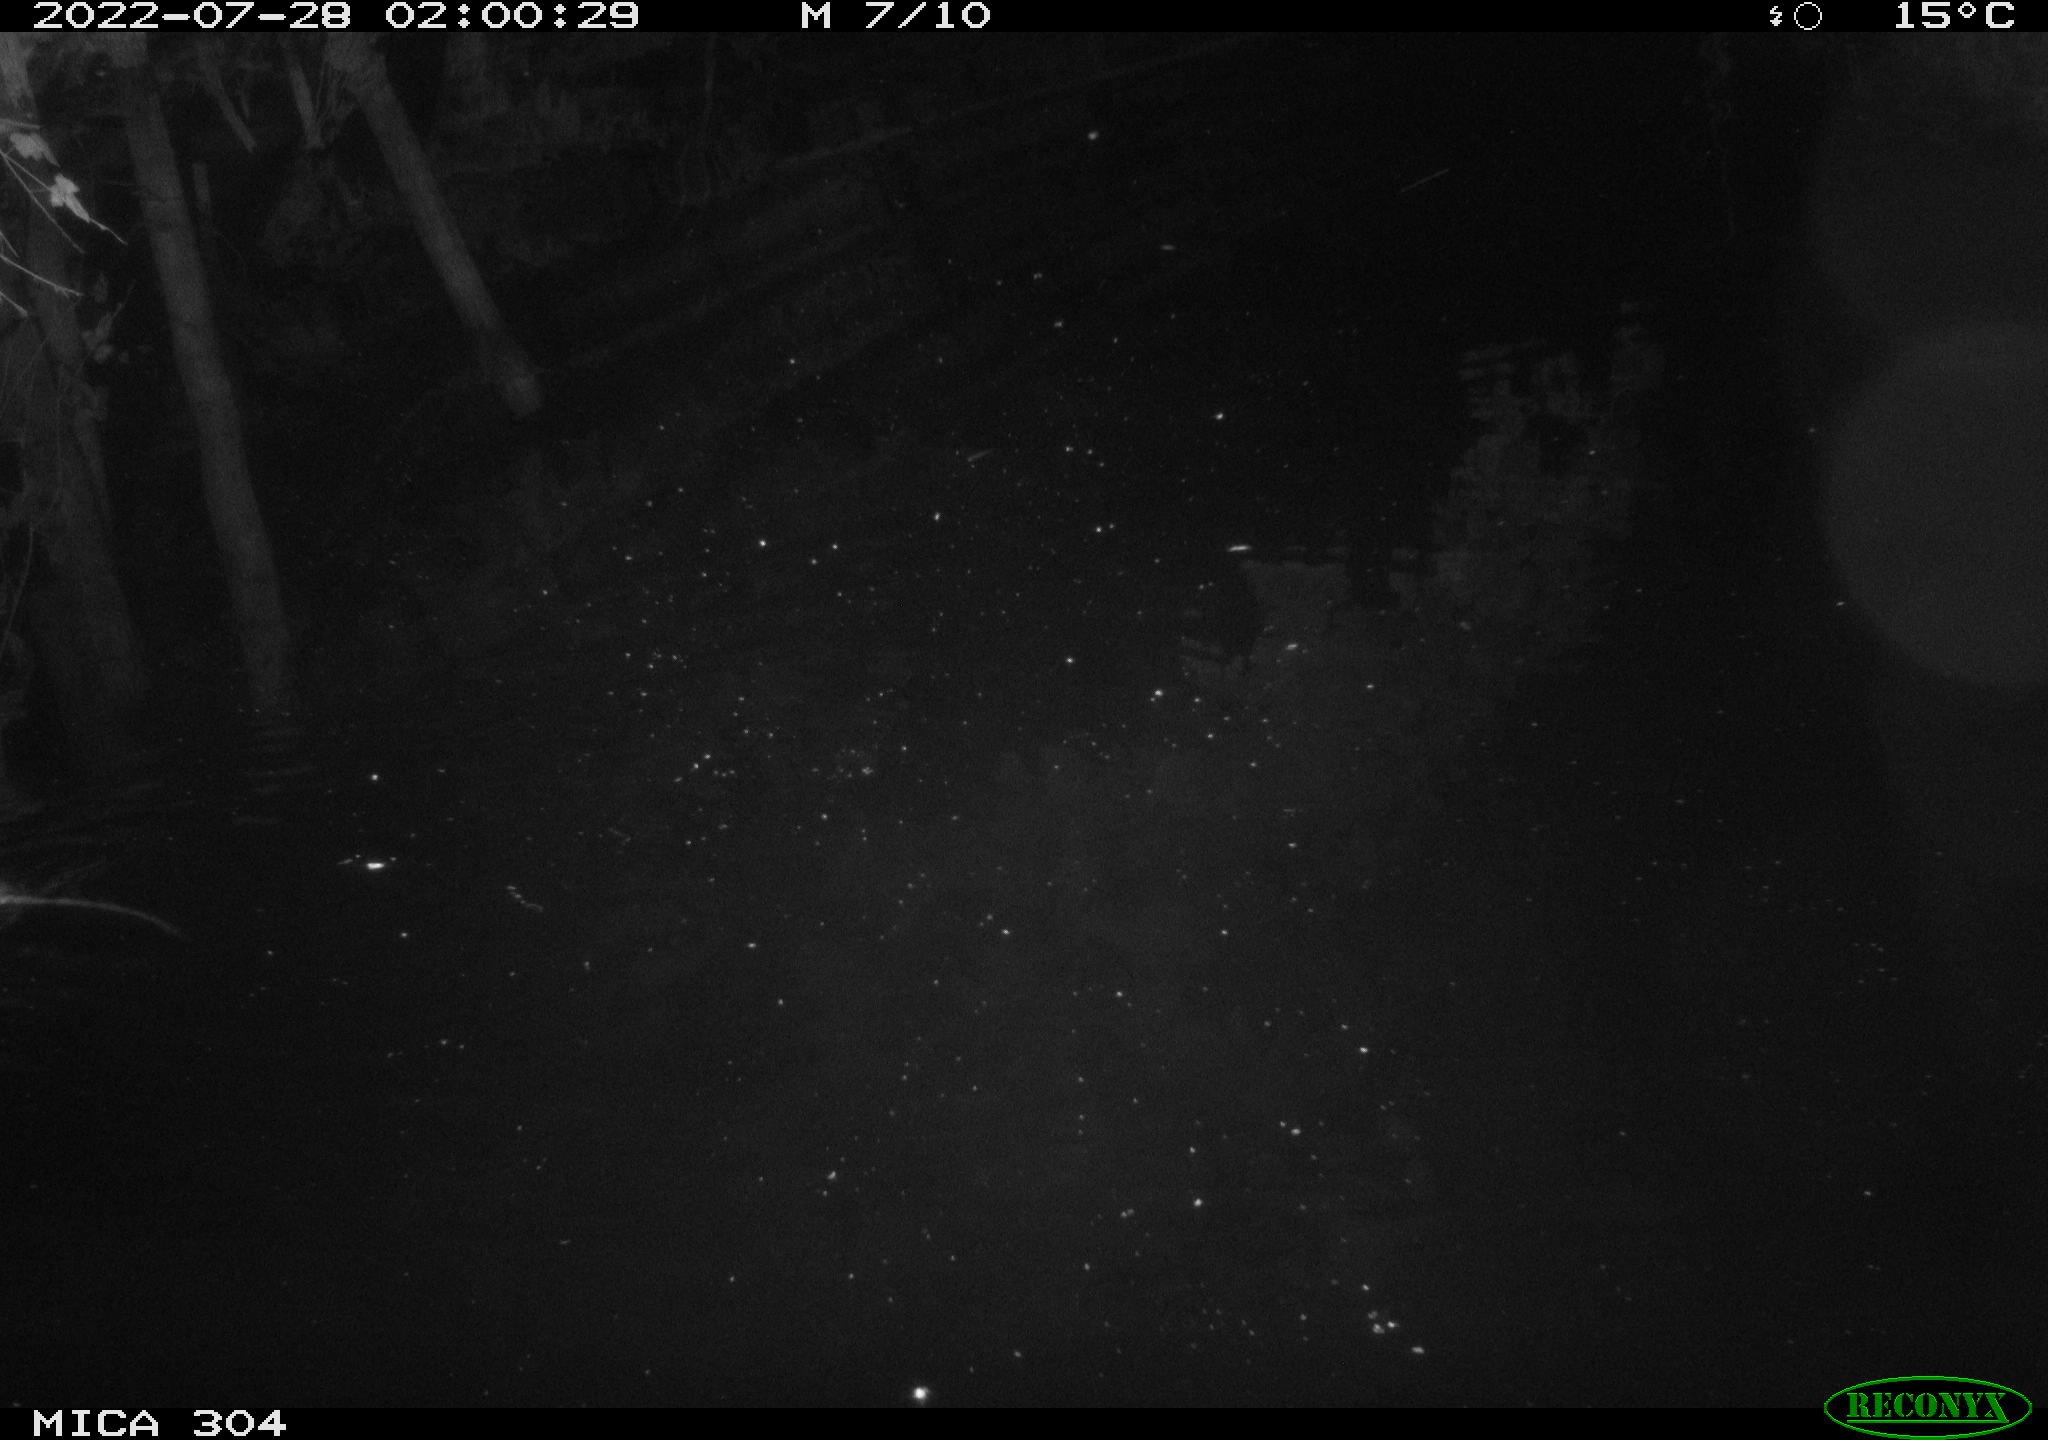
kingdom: Animalia
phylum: Chordata
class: Mammalia
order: Rodentia
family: Muridae
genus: Rattus
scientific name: Rattus norvegicus
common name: Brown rat
